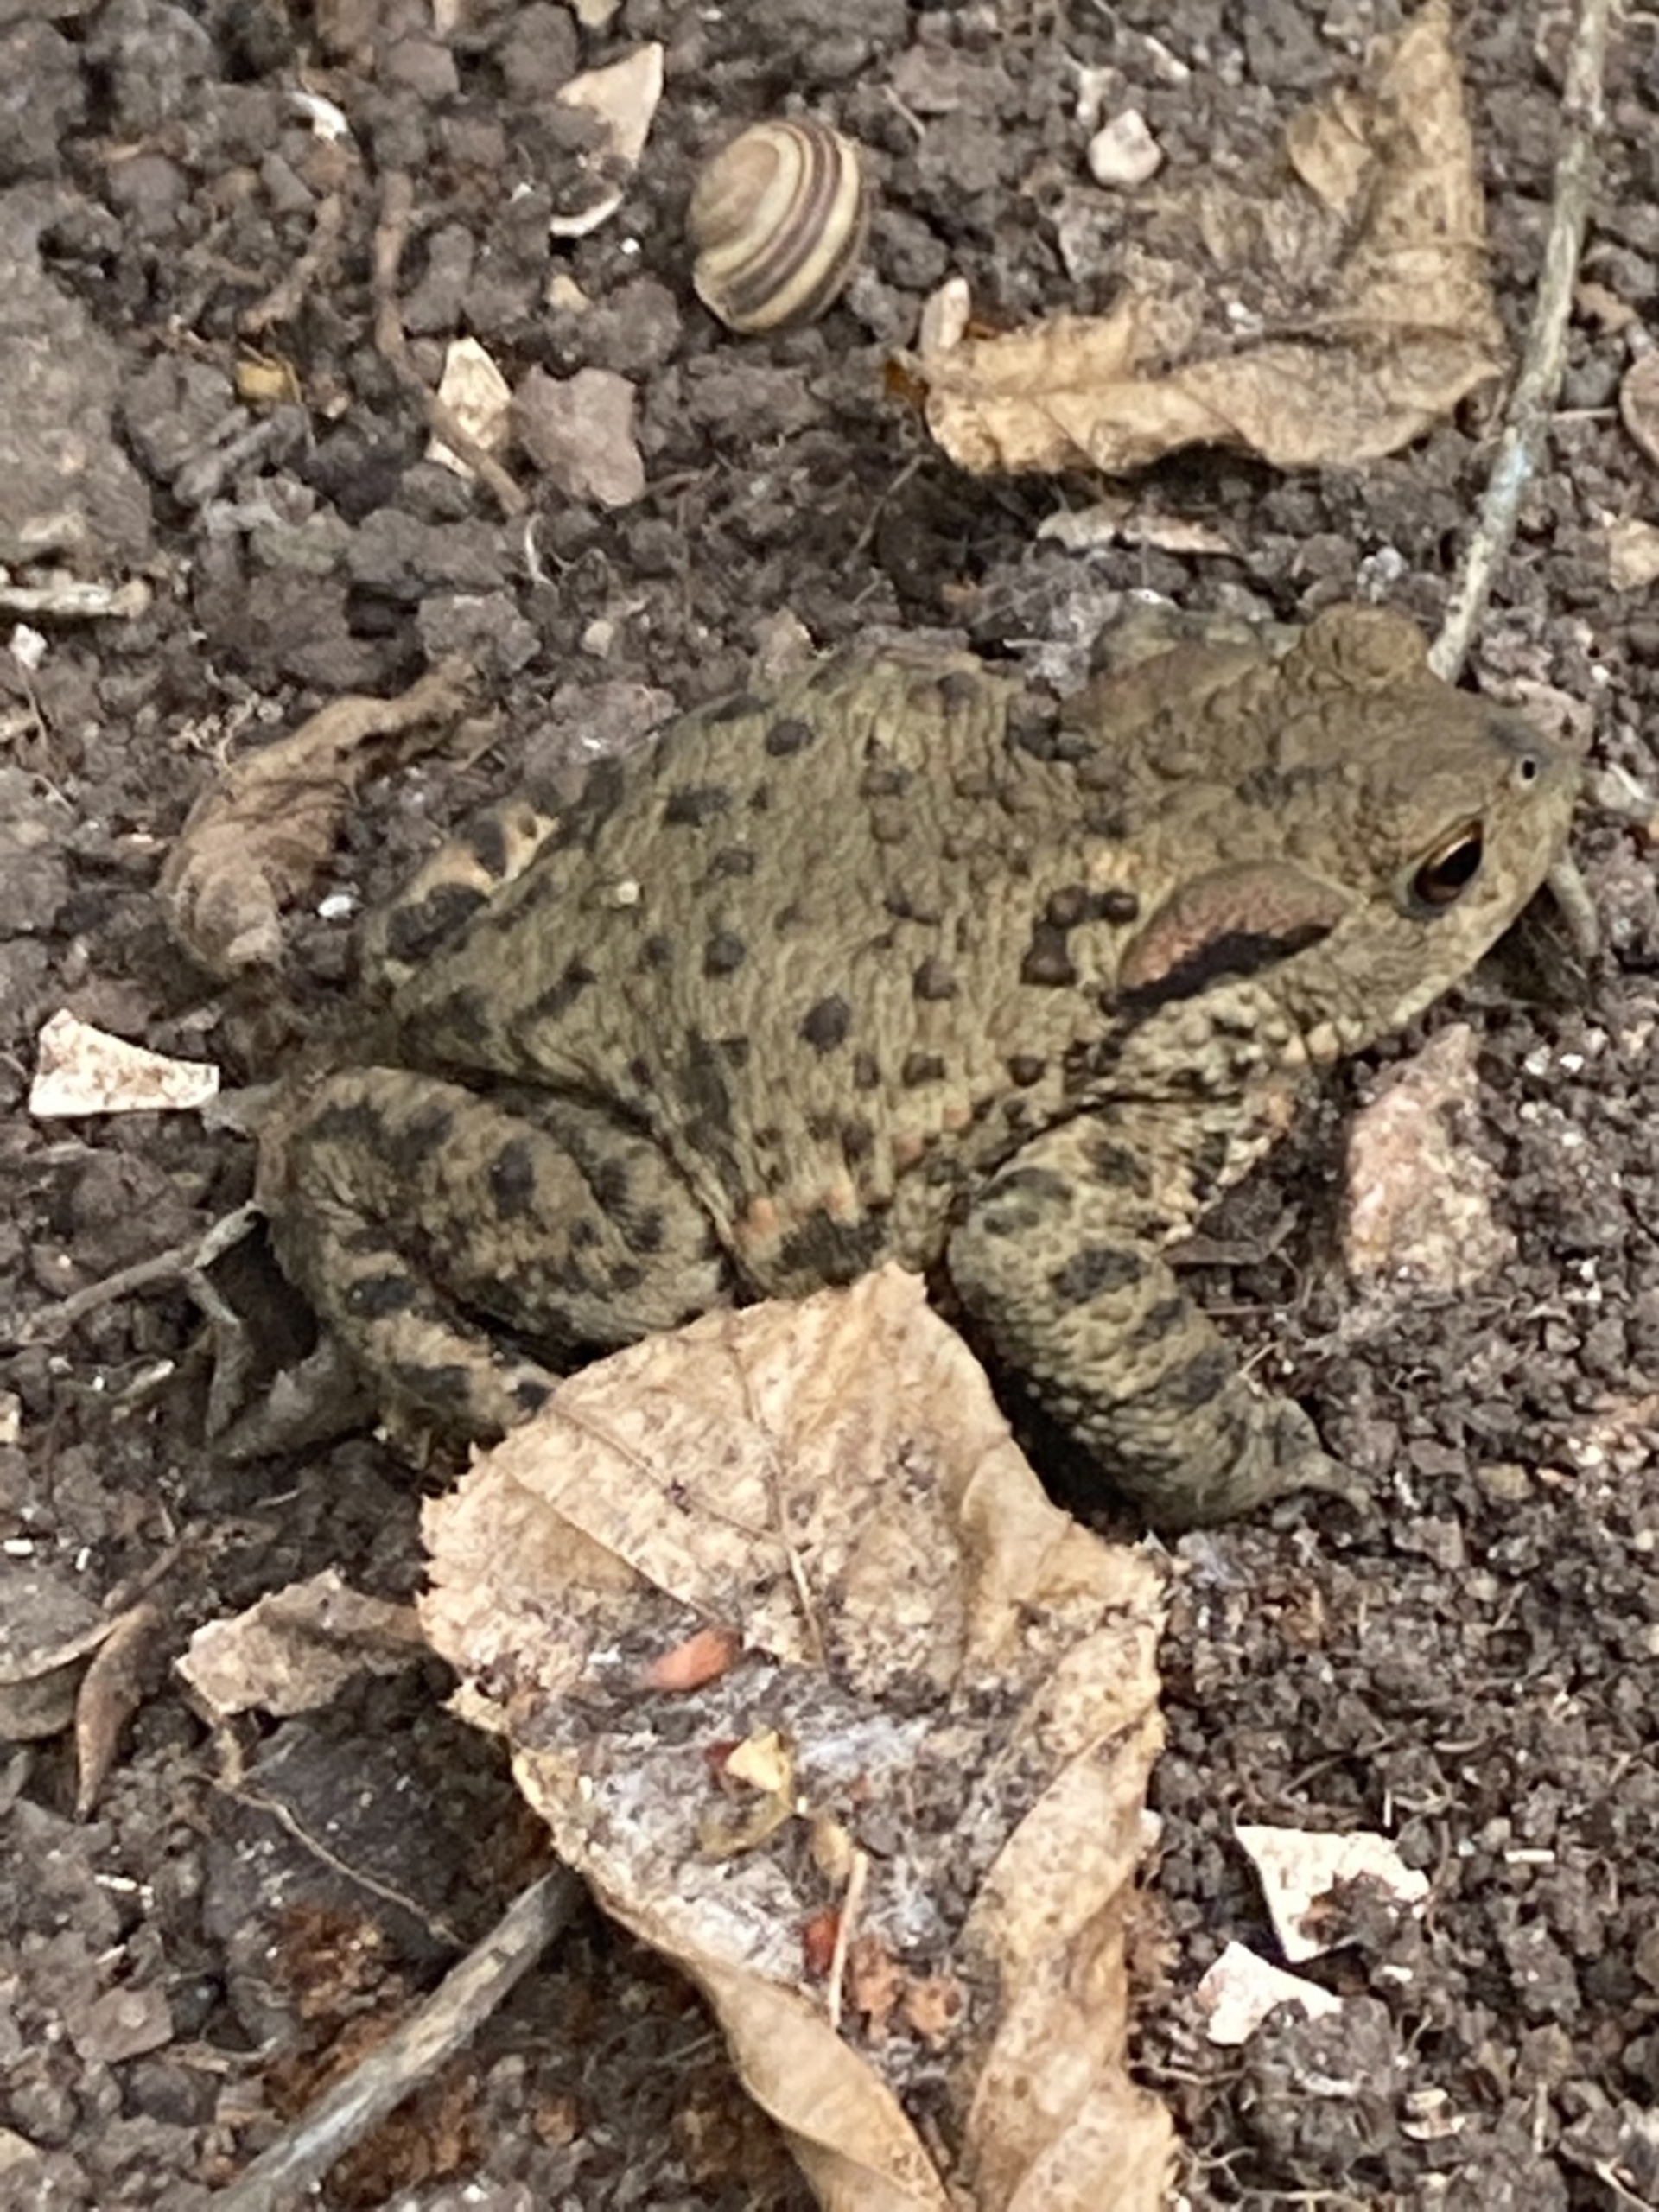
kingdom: Animalia
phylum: Chordata
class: Amphibia
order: Anura
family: Bufonidae
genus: Bufo
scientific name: Bufo bufo
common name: Skrubtudse
